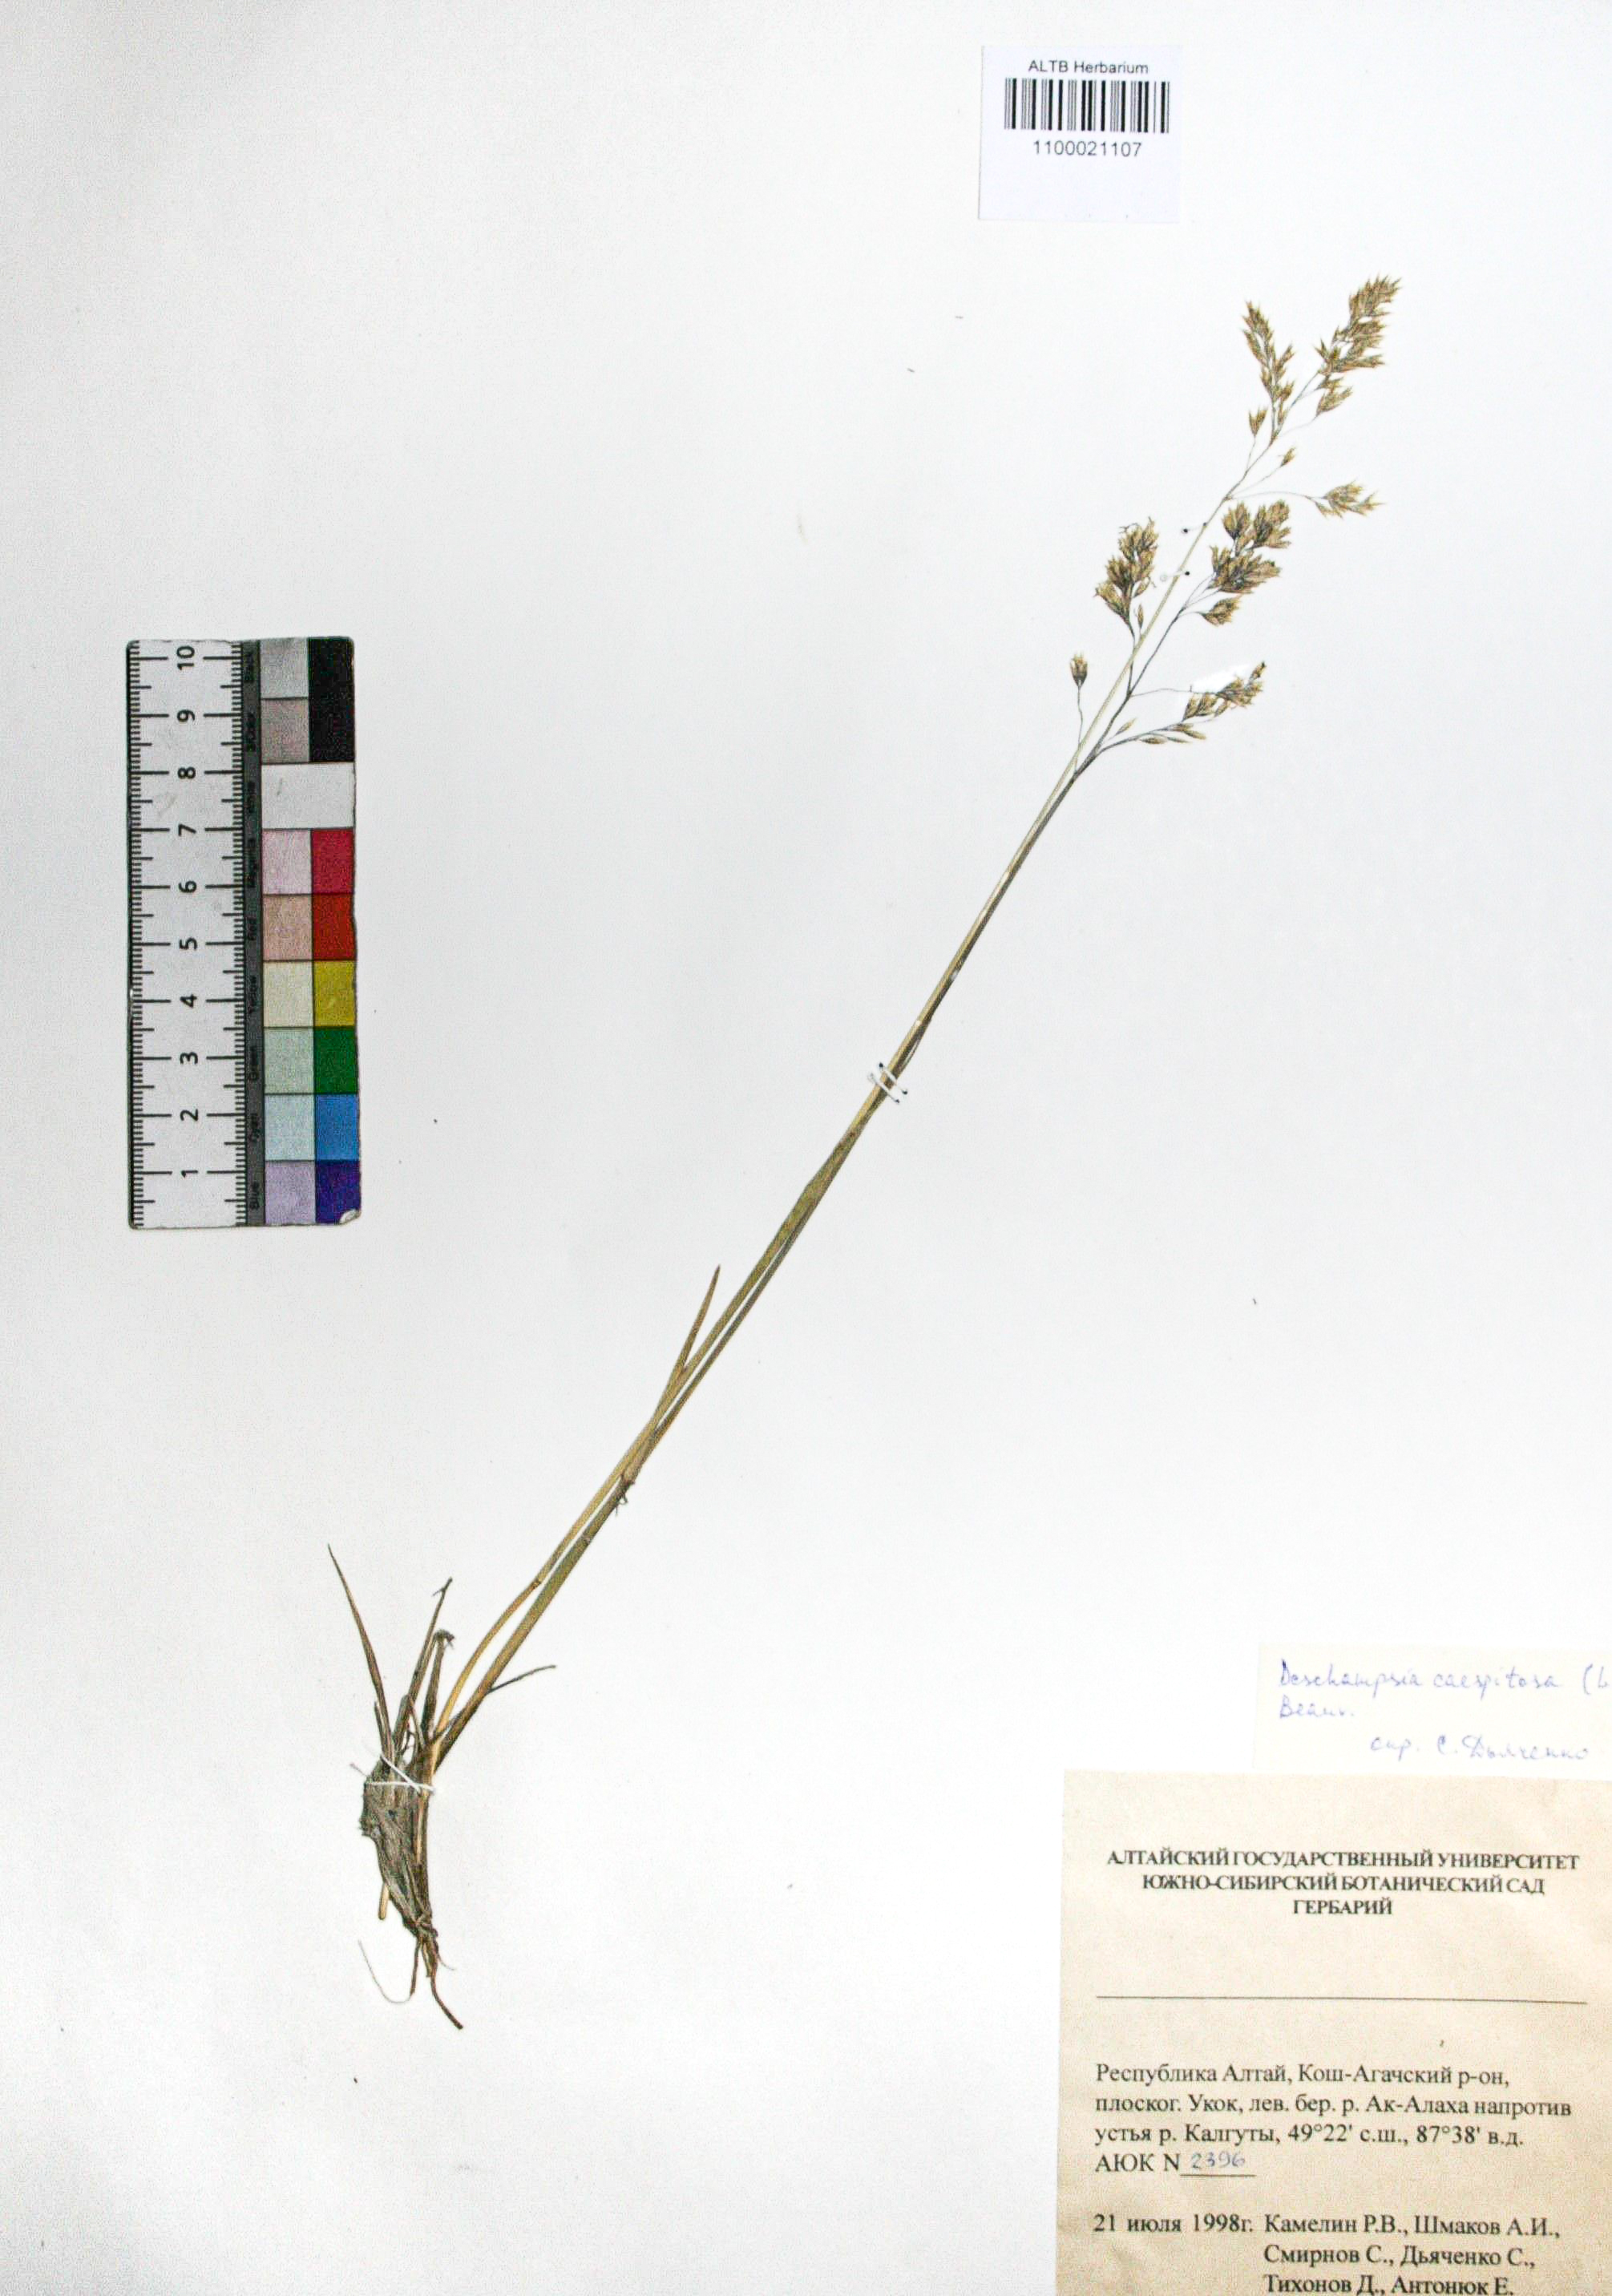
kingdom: Plantae
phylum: Tracheophyta
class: Liliopsida
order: Poales
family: Poaceae
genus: Deschampsia
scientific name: Deschampsia cespitosa
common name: Tufted hair-grass
